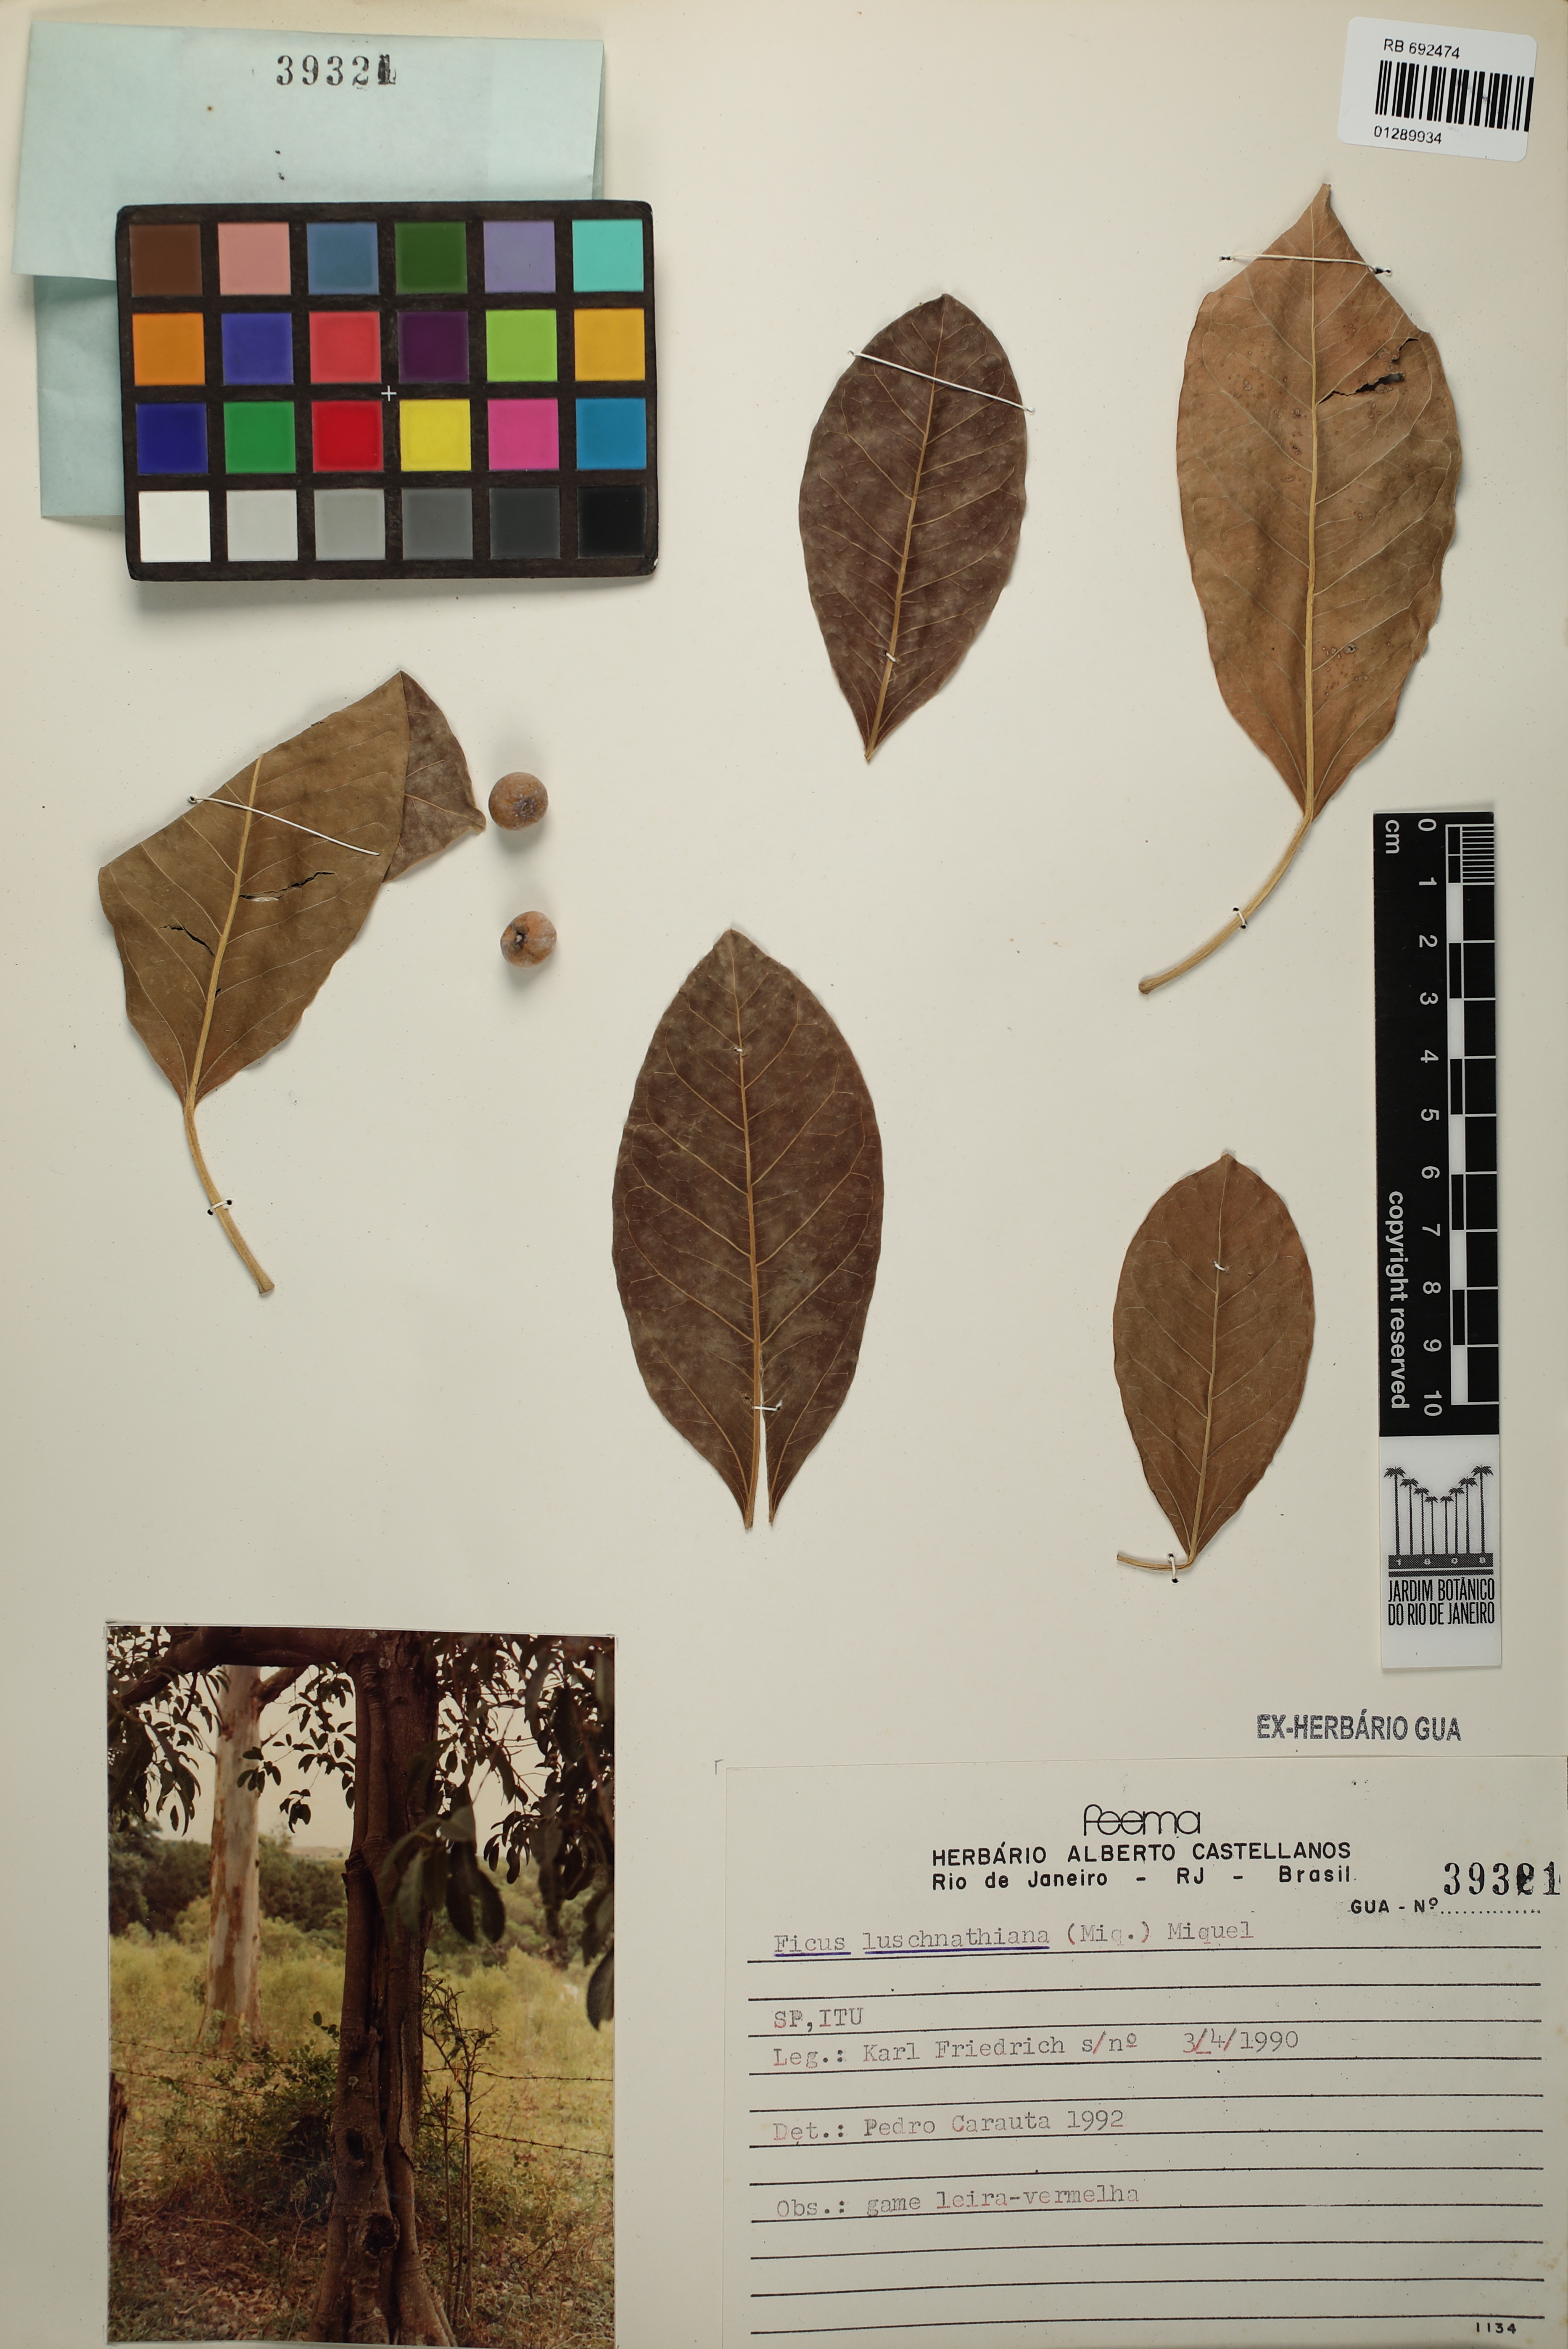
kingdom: Plantae
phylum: Tracheophyta
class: Magnoliopsida
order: Rosales
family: Moraceae
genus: Ficus
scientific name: Ficus luschnathiana
